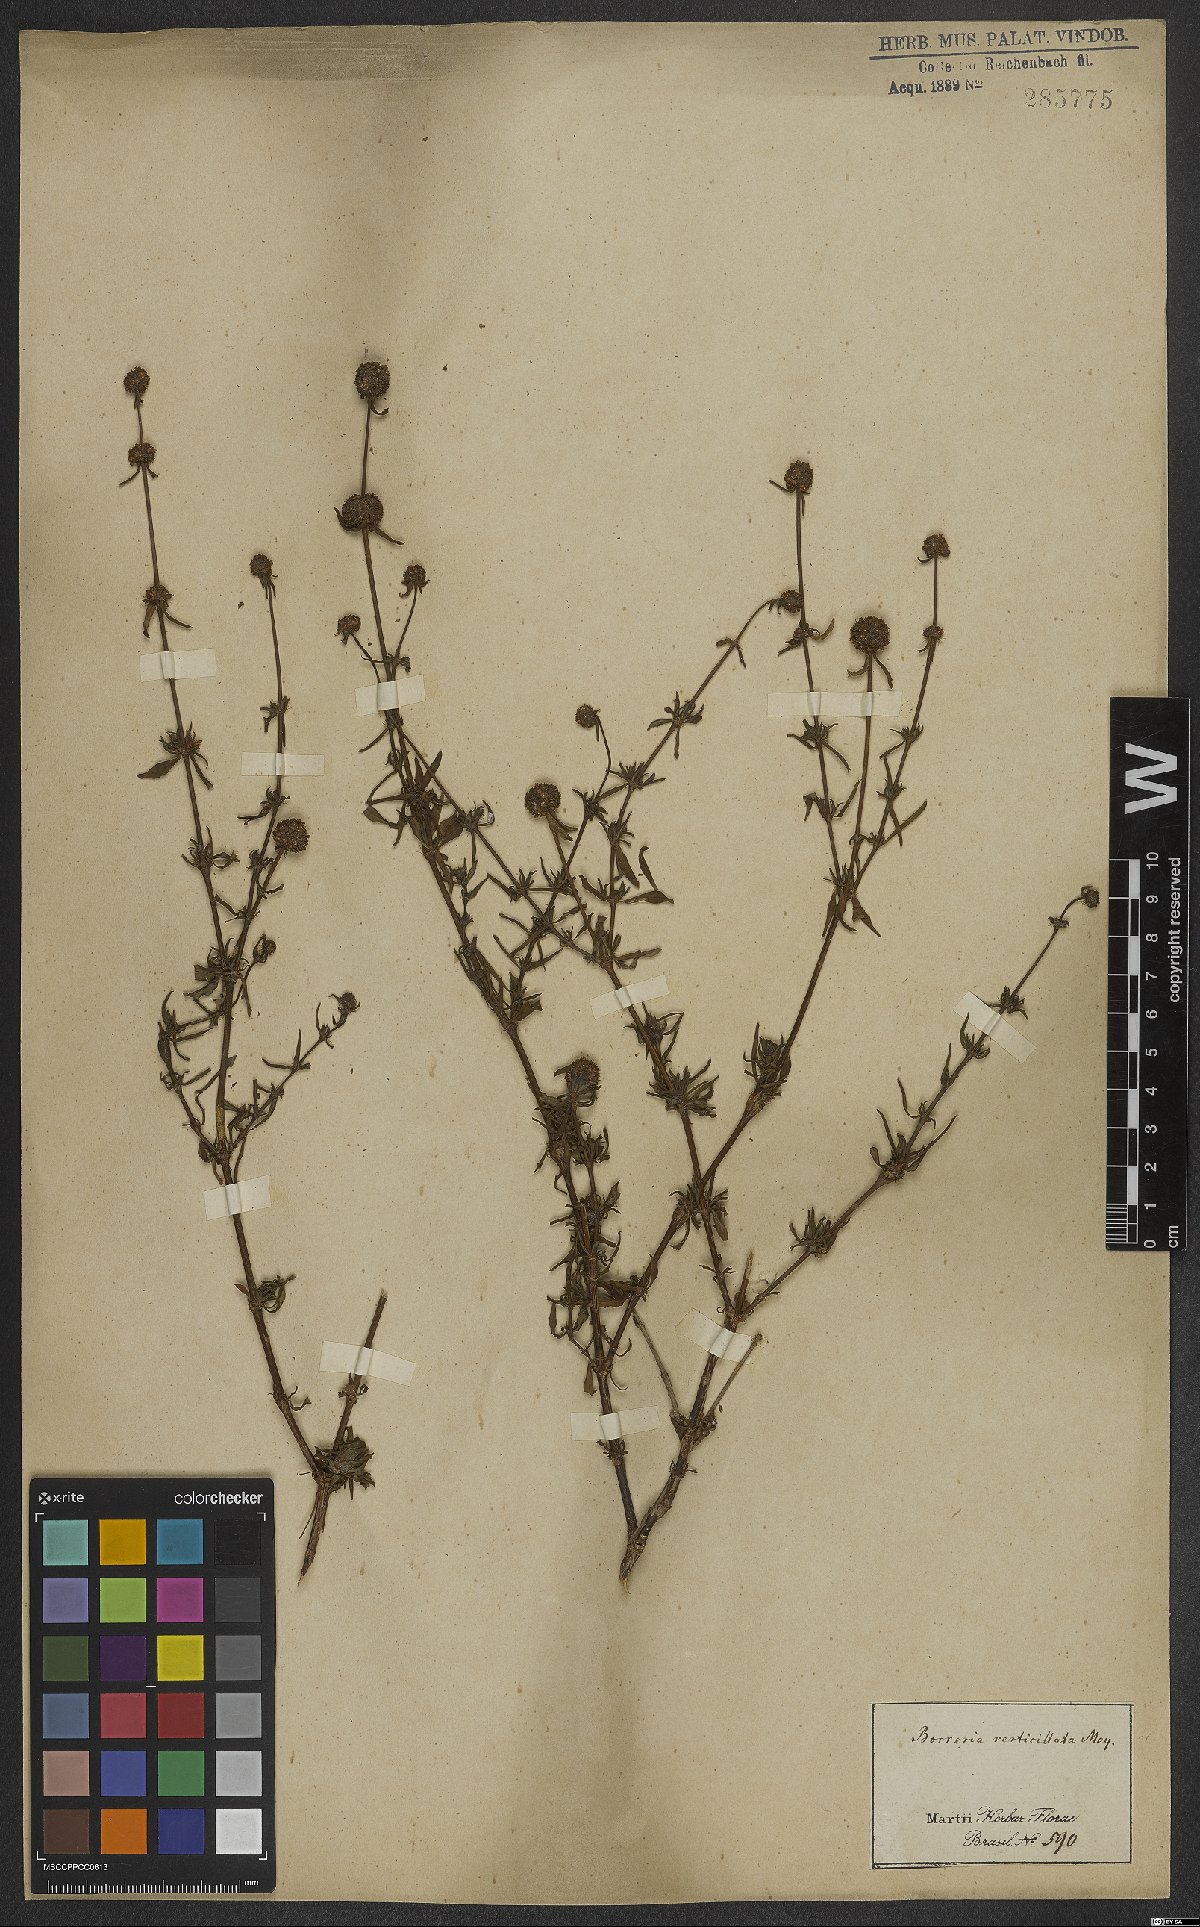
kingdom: Plantae
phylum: Tracheophyta
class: Magnoliopsida
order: Gentianales
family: Rubiaceae
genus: Spermacoce
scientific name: Spermacoce verticillata
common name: Shrubby false buttonweed
